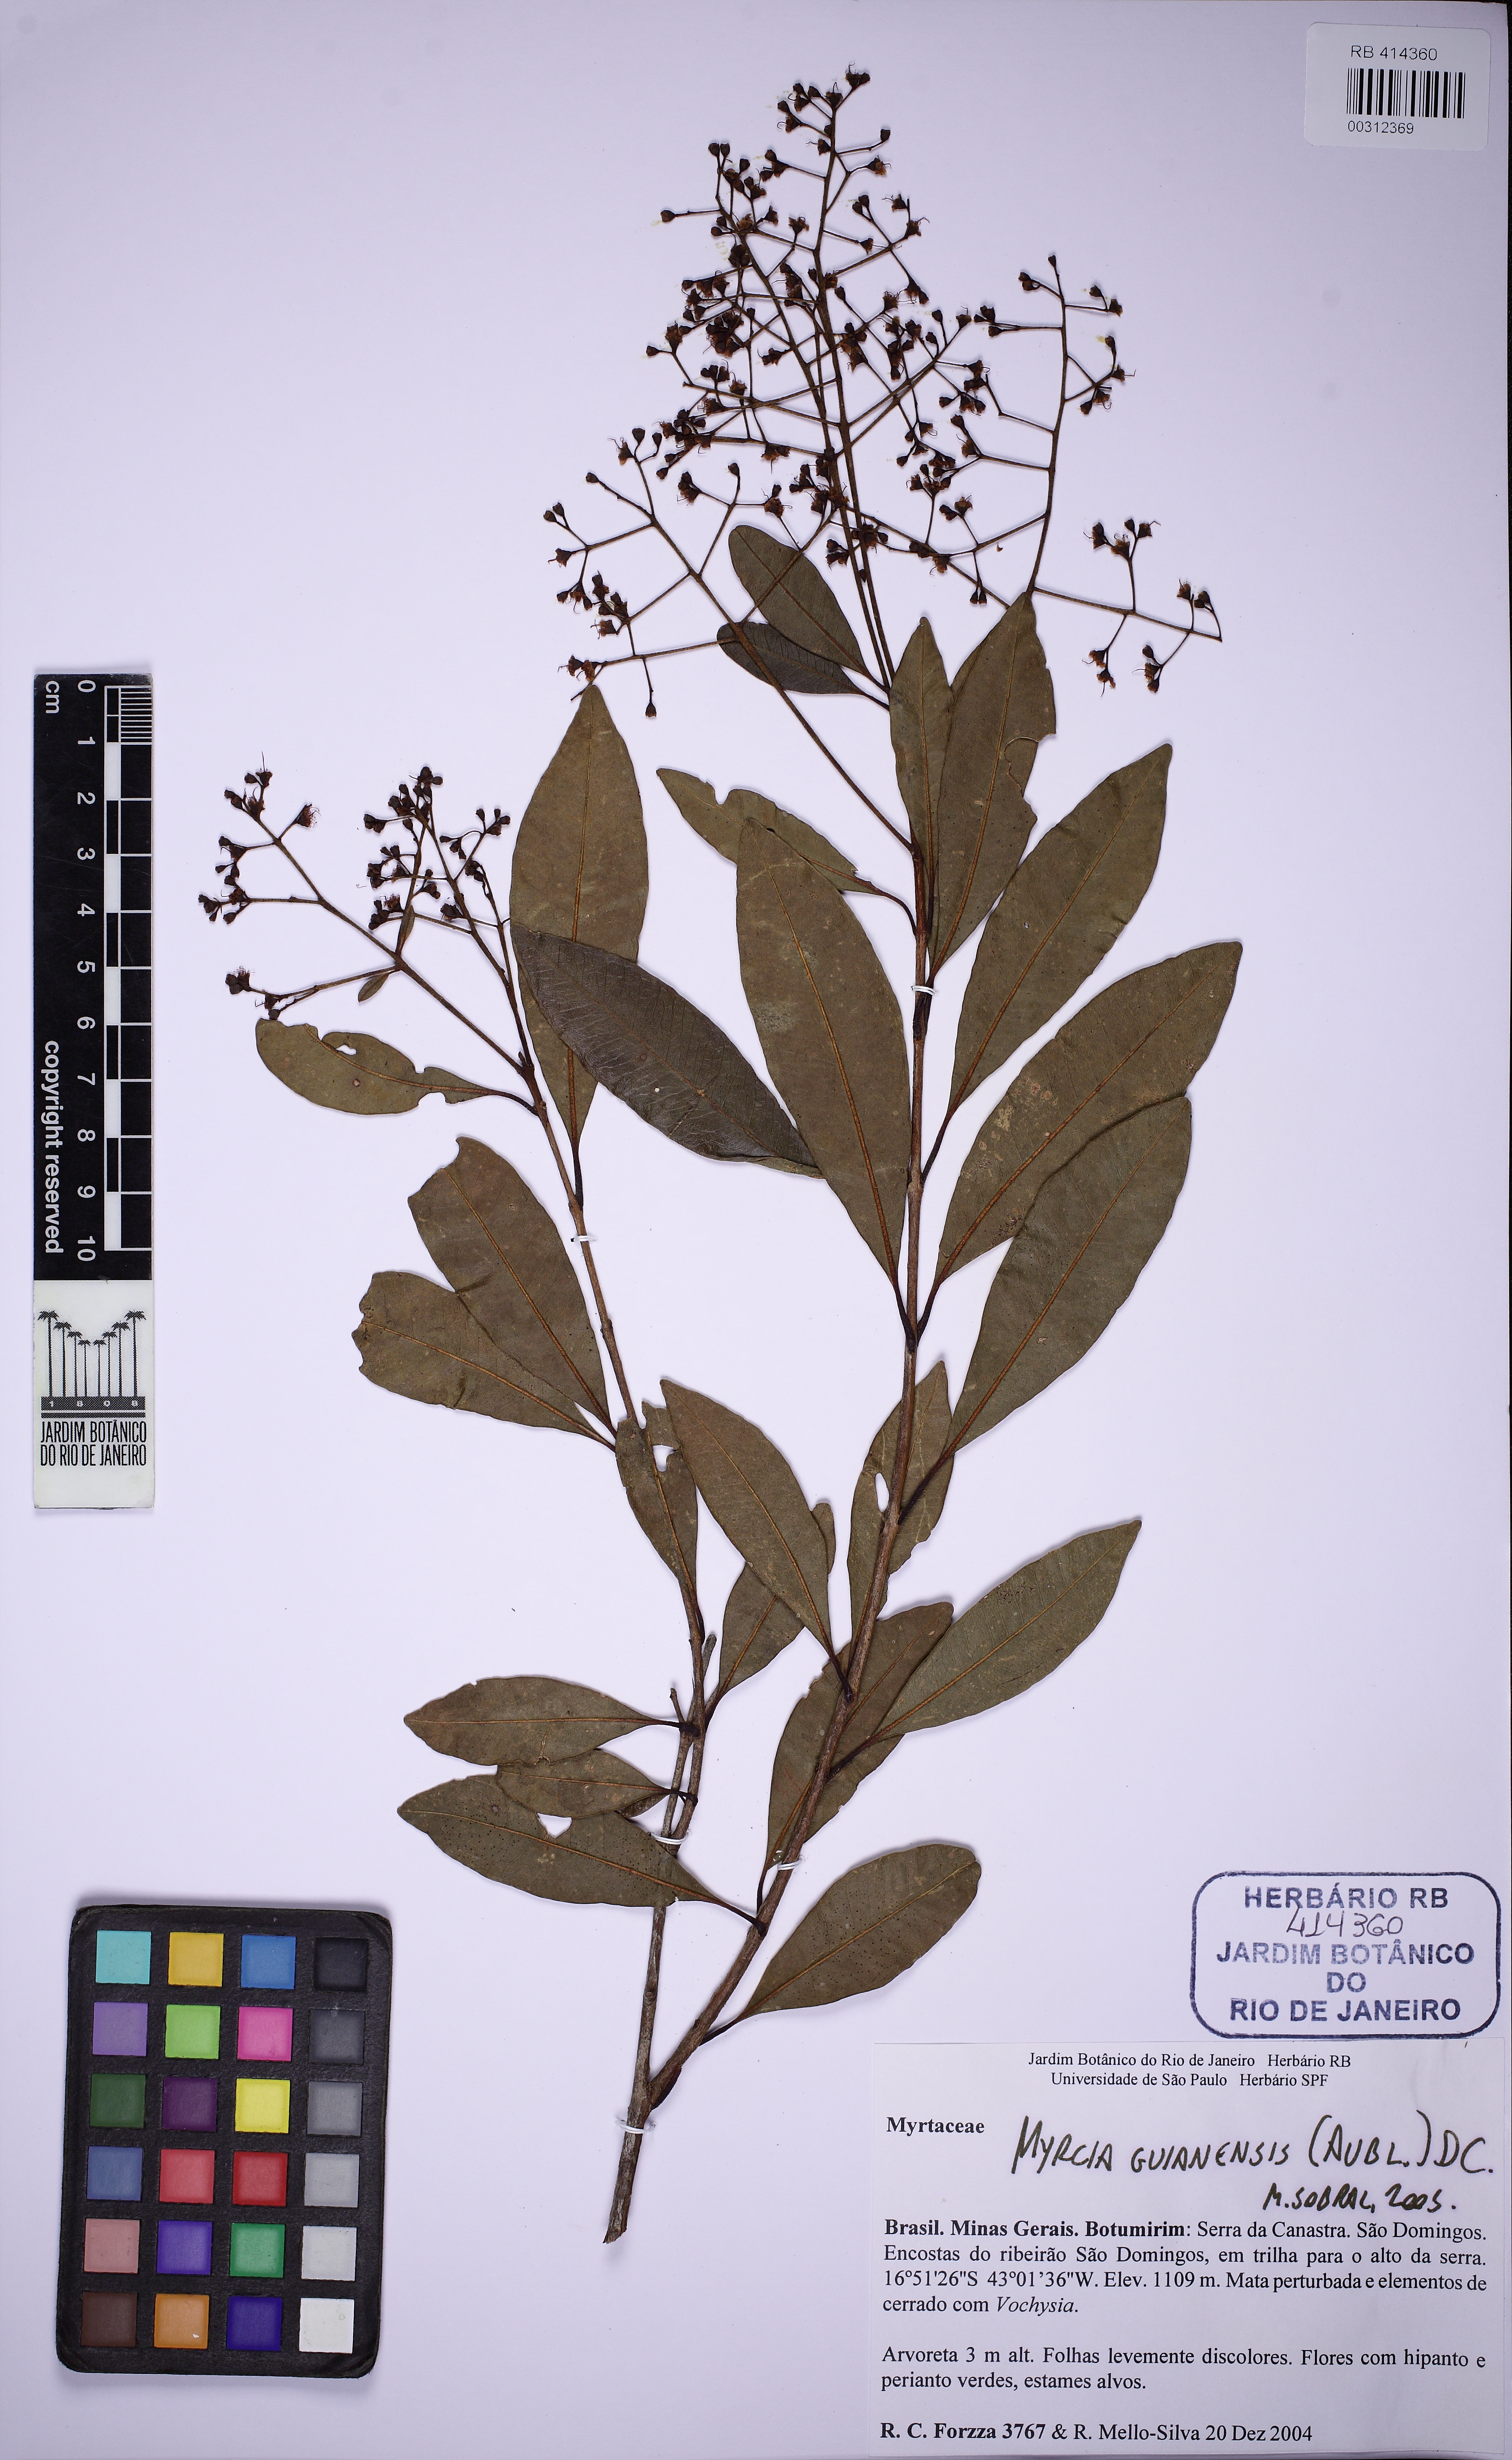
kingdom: Plantae
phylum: Tracheophyta
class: Magnoliopsida
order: Myrtales
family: Myrtaceae
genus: Myrcia
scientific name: Myrcia guianensis
